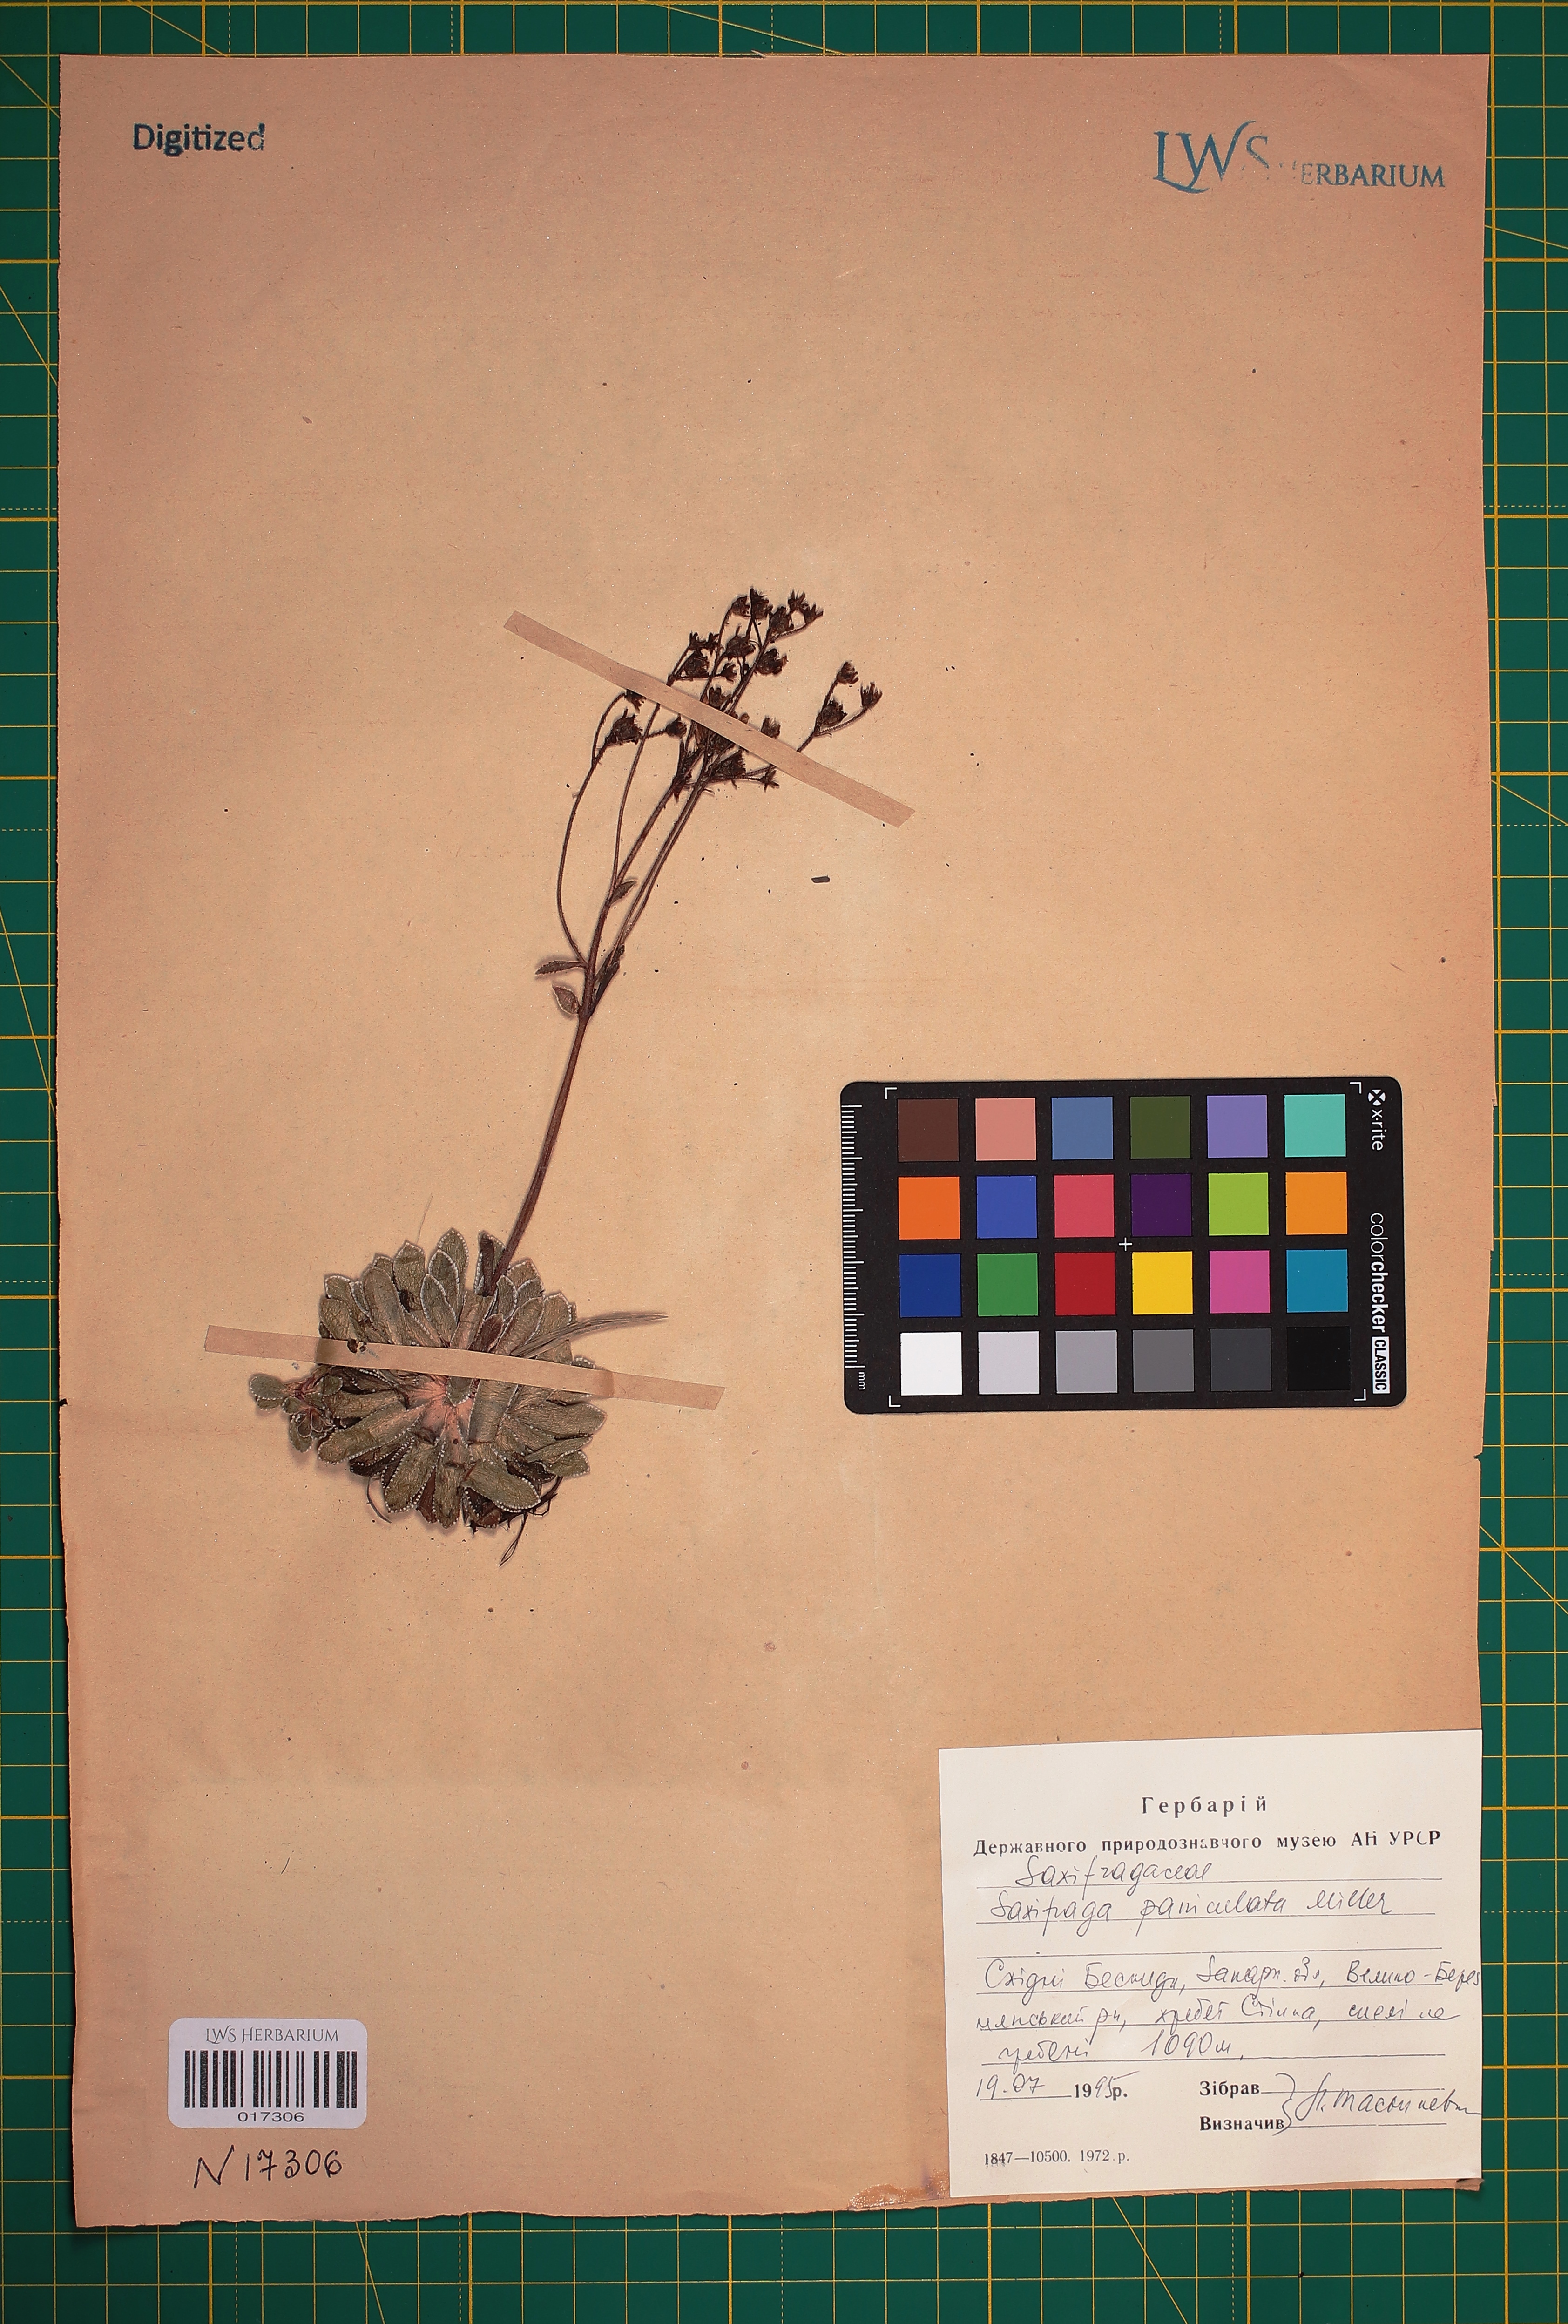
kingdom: Plantae
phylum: Tracheophyta
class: Magnoliopsida
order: Saxifragales
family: Saxifragaceae
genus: Saxifraga
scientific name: Saxifraga paniculata
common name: Livelong saxifrage
